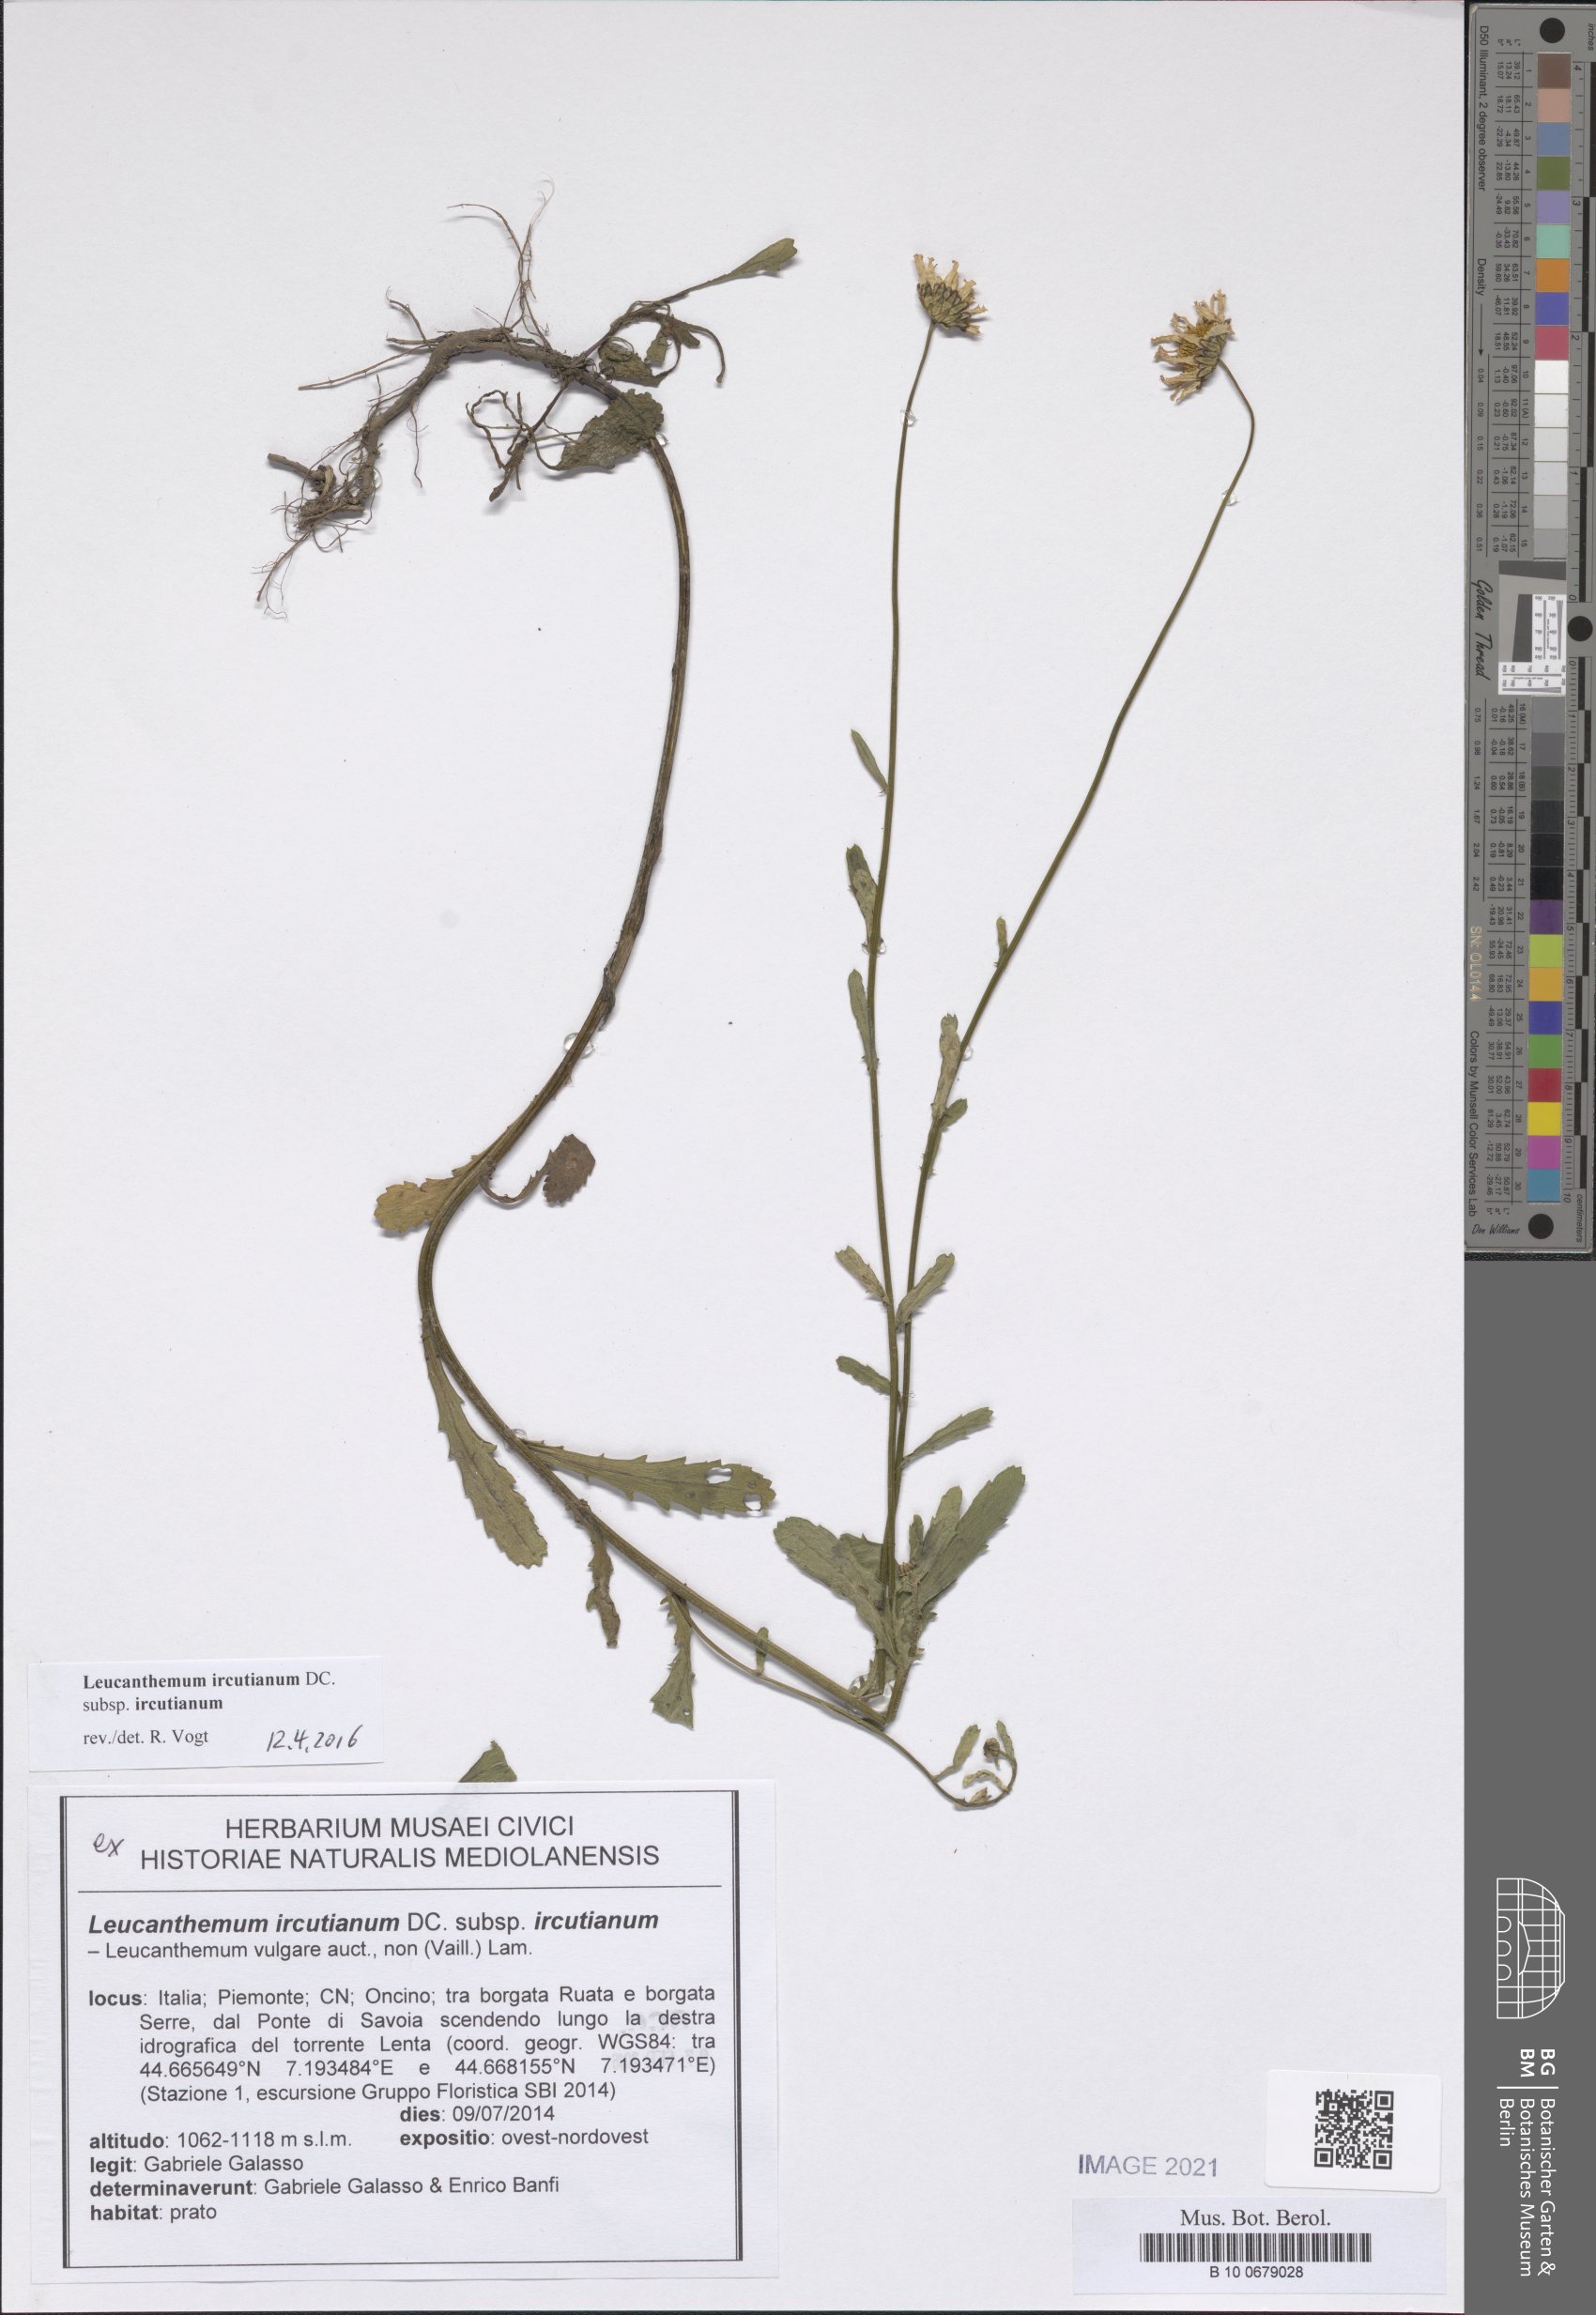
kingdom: Plantae
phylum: Tracheophyta
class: Magnoliopsida
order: Asterales
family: Asteraceae
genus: Leucanthemum
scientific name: Leucanthemum ircutianum
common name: Daisy
